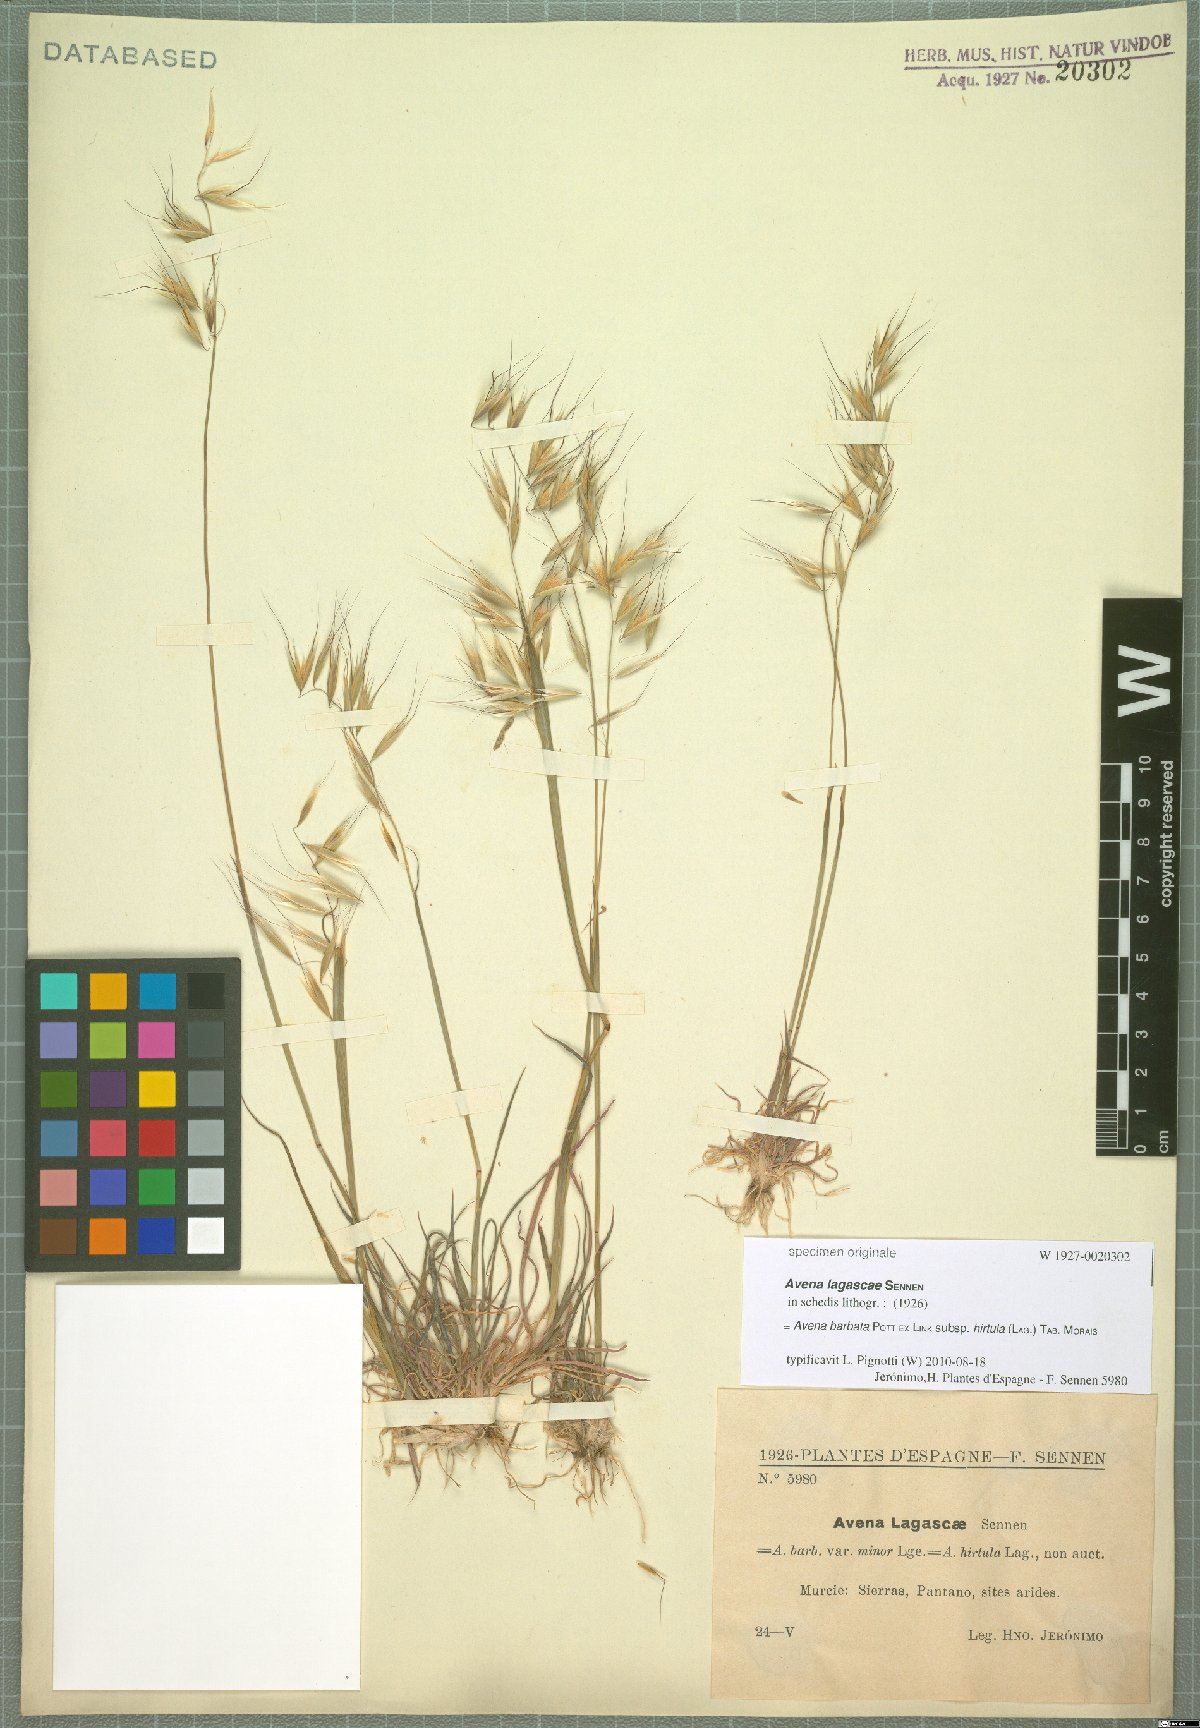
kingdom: Plantae
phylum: Tracheophyta
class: Liliopsida
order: Poales
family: Poaceae
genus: Avena
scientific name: Avena barbata
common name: Slender oat
